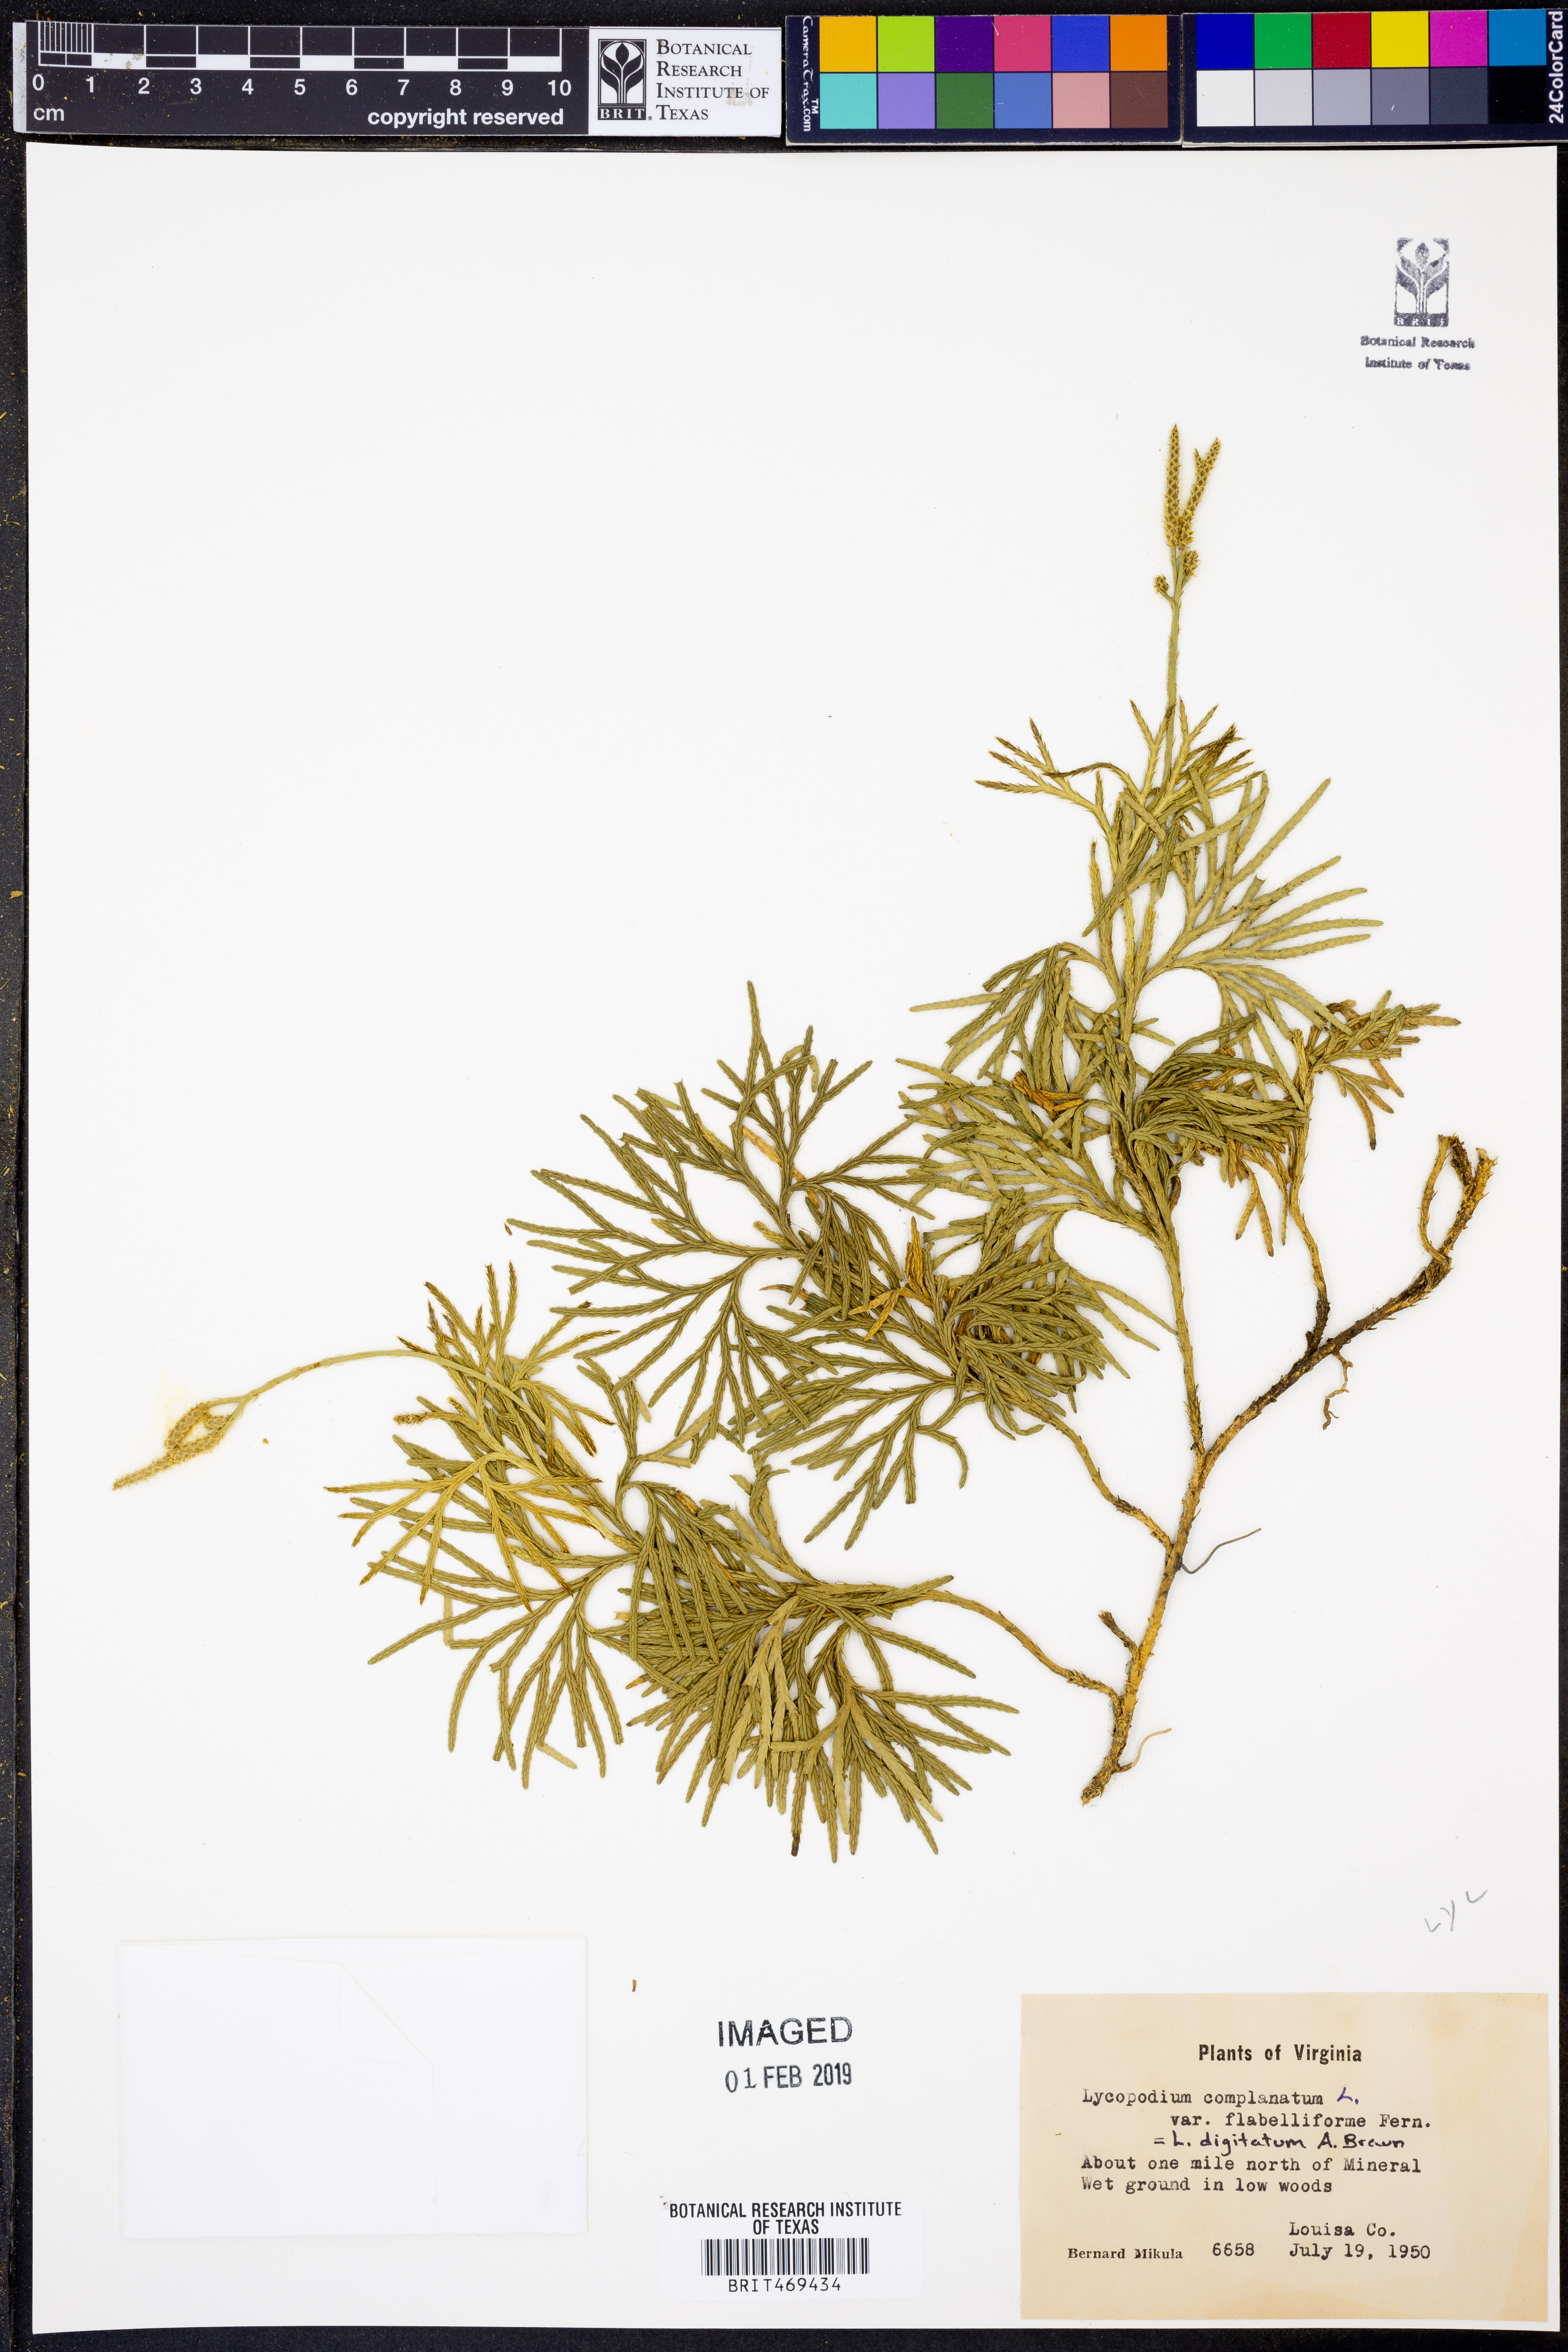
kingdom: Plantae
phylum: Tracheophyta
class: Lycopodiopsida
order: Lycopodiales
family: Lycopodiaceae
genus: Diphasiastrum
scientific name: Diphasiastrum digitatum
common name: Southern running-pine
